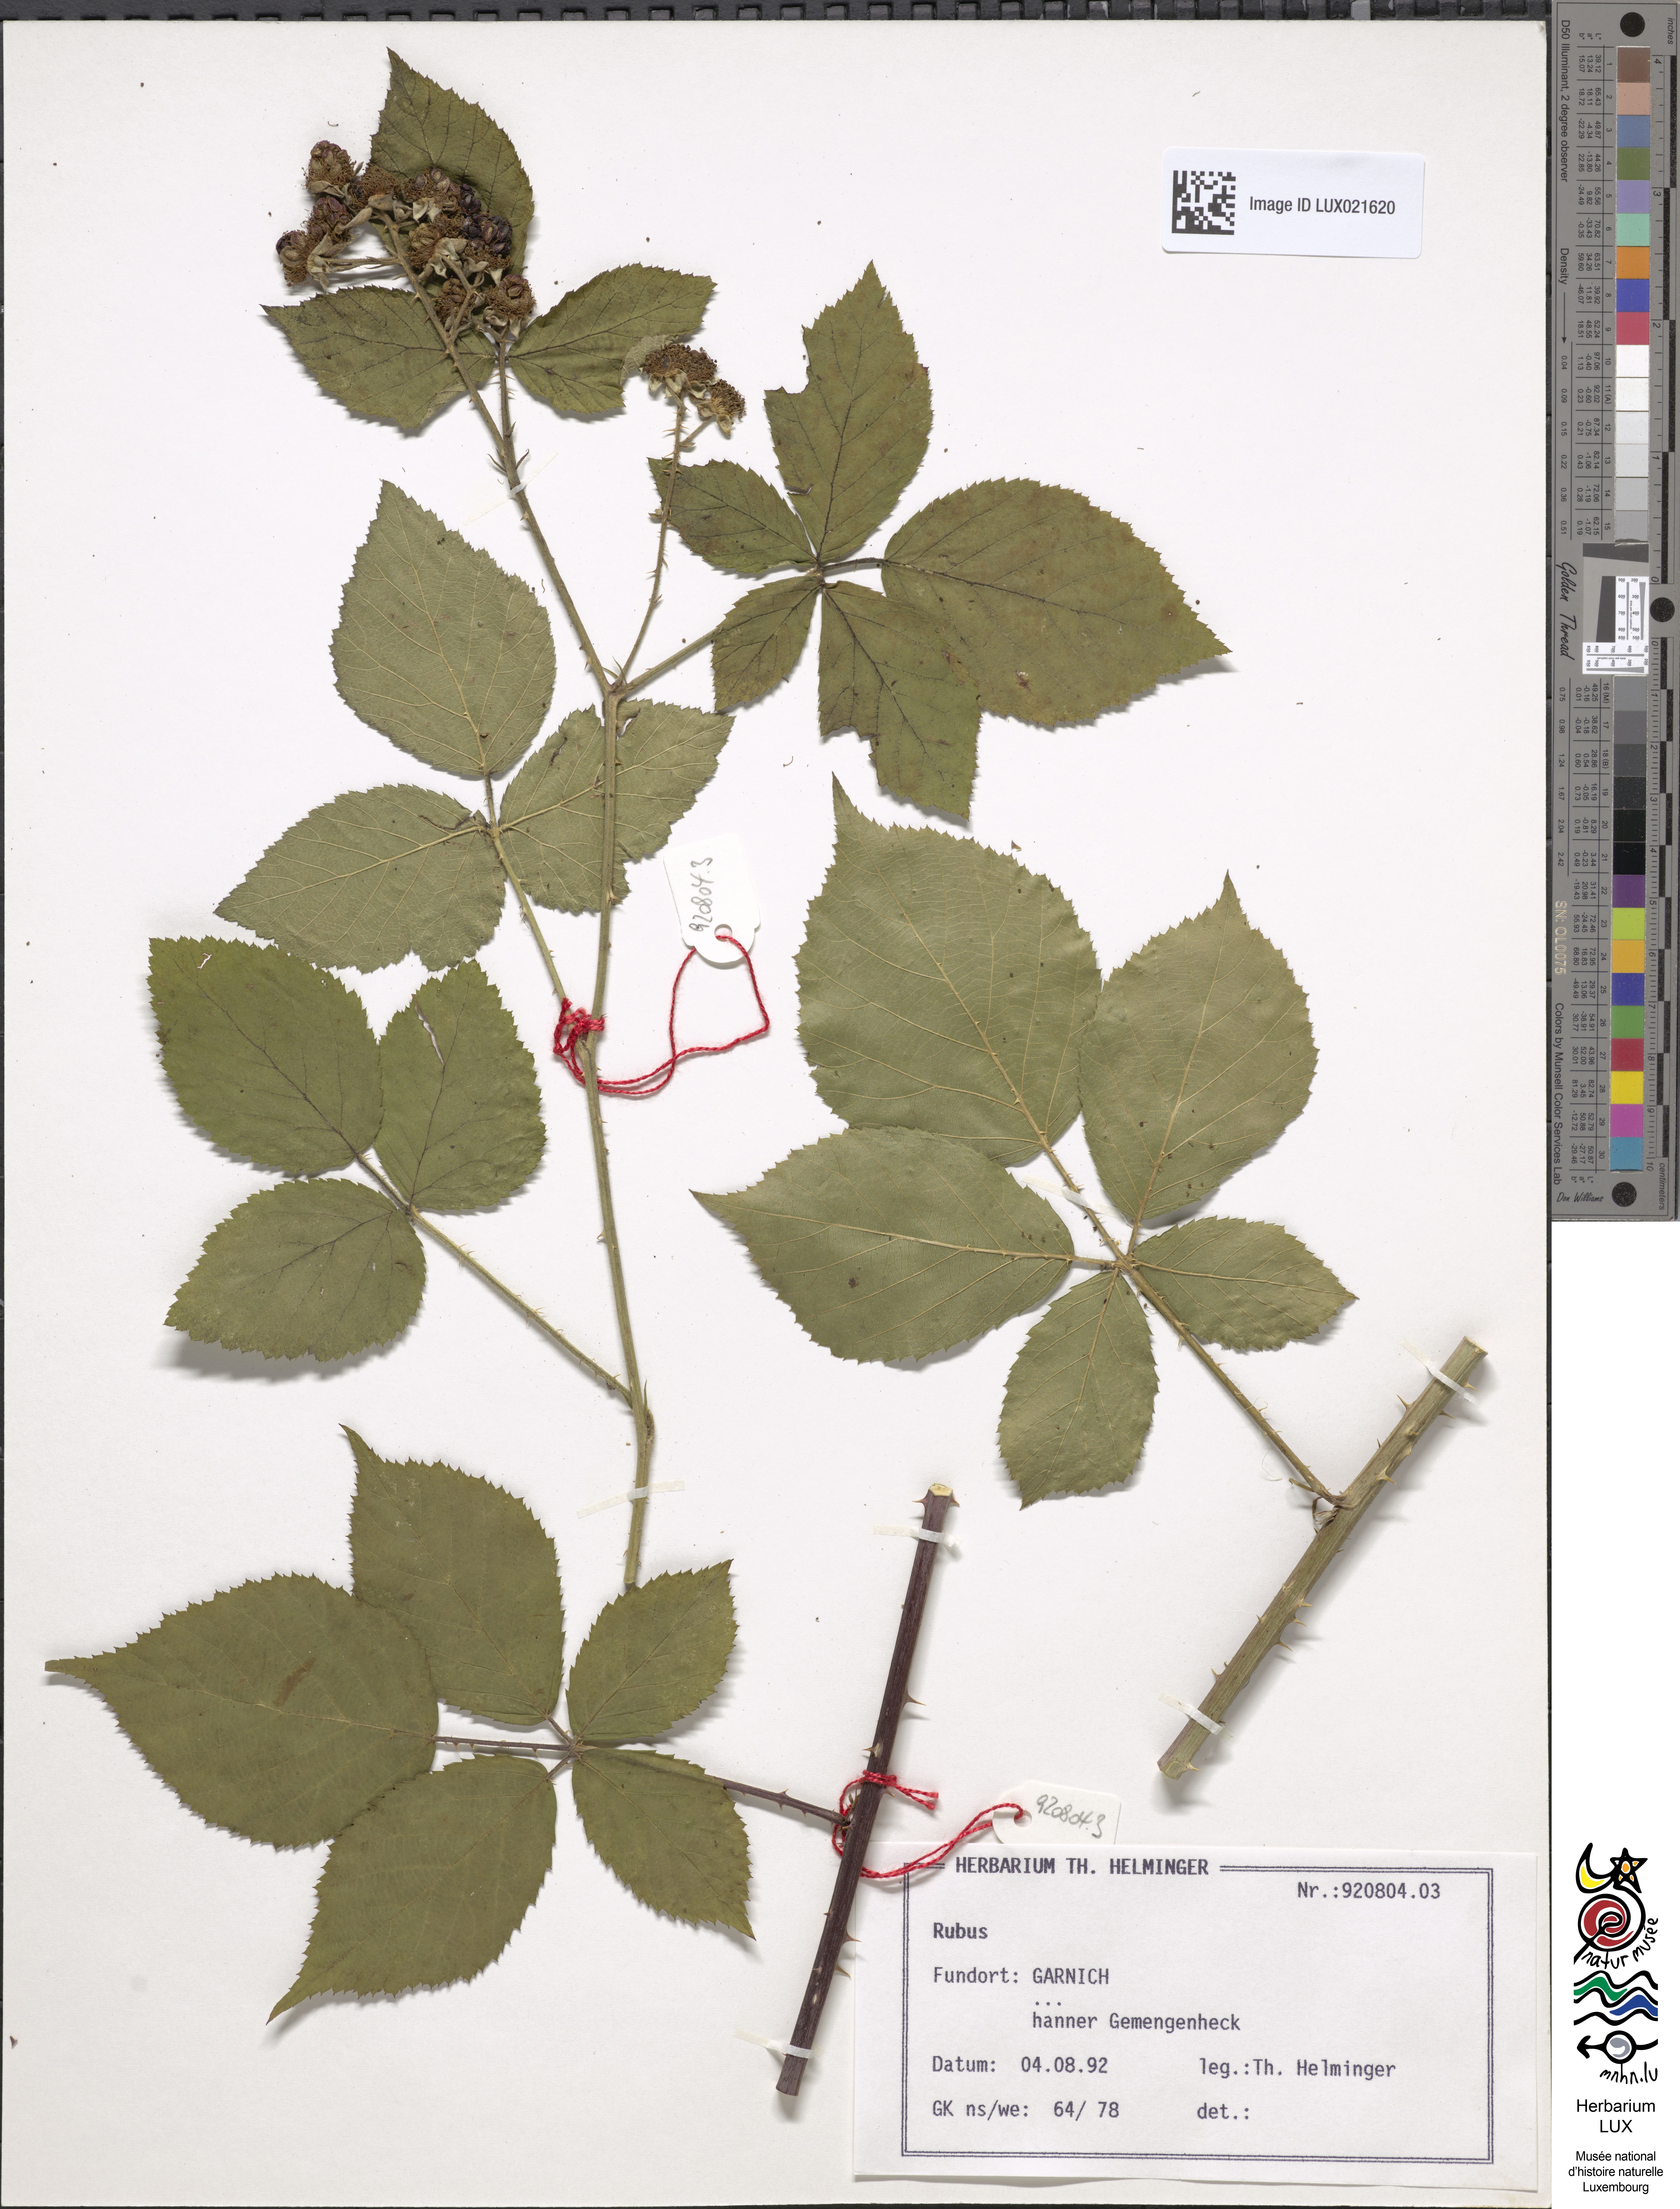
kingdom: Plantae
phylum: Tracheophyta
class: Magnoliopsida
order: Rosales
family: Rosaceae
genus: Rubus
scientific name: Rubus
